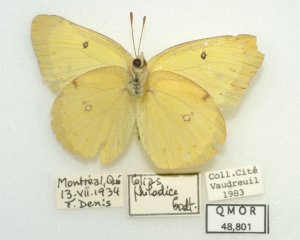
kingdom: Animalia
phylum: Arthropoda
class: Insecta
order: Lepidoptera
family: Pieridae
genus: Colias
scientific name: Colias philodice
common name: Clouded Sulphur
